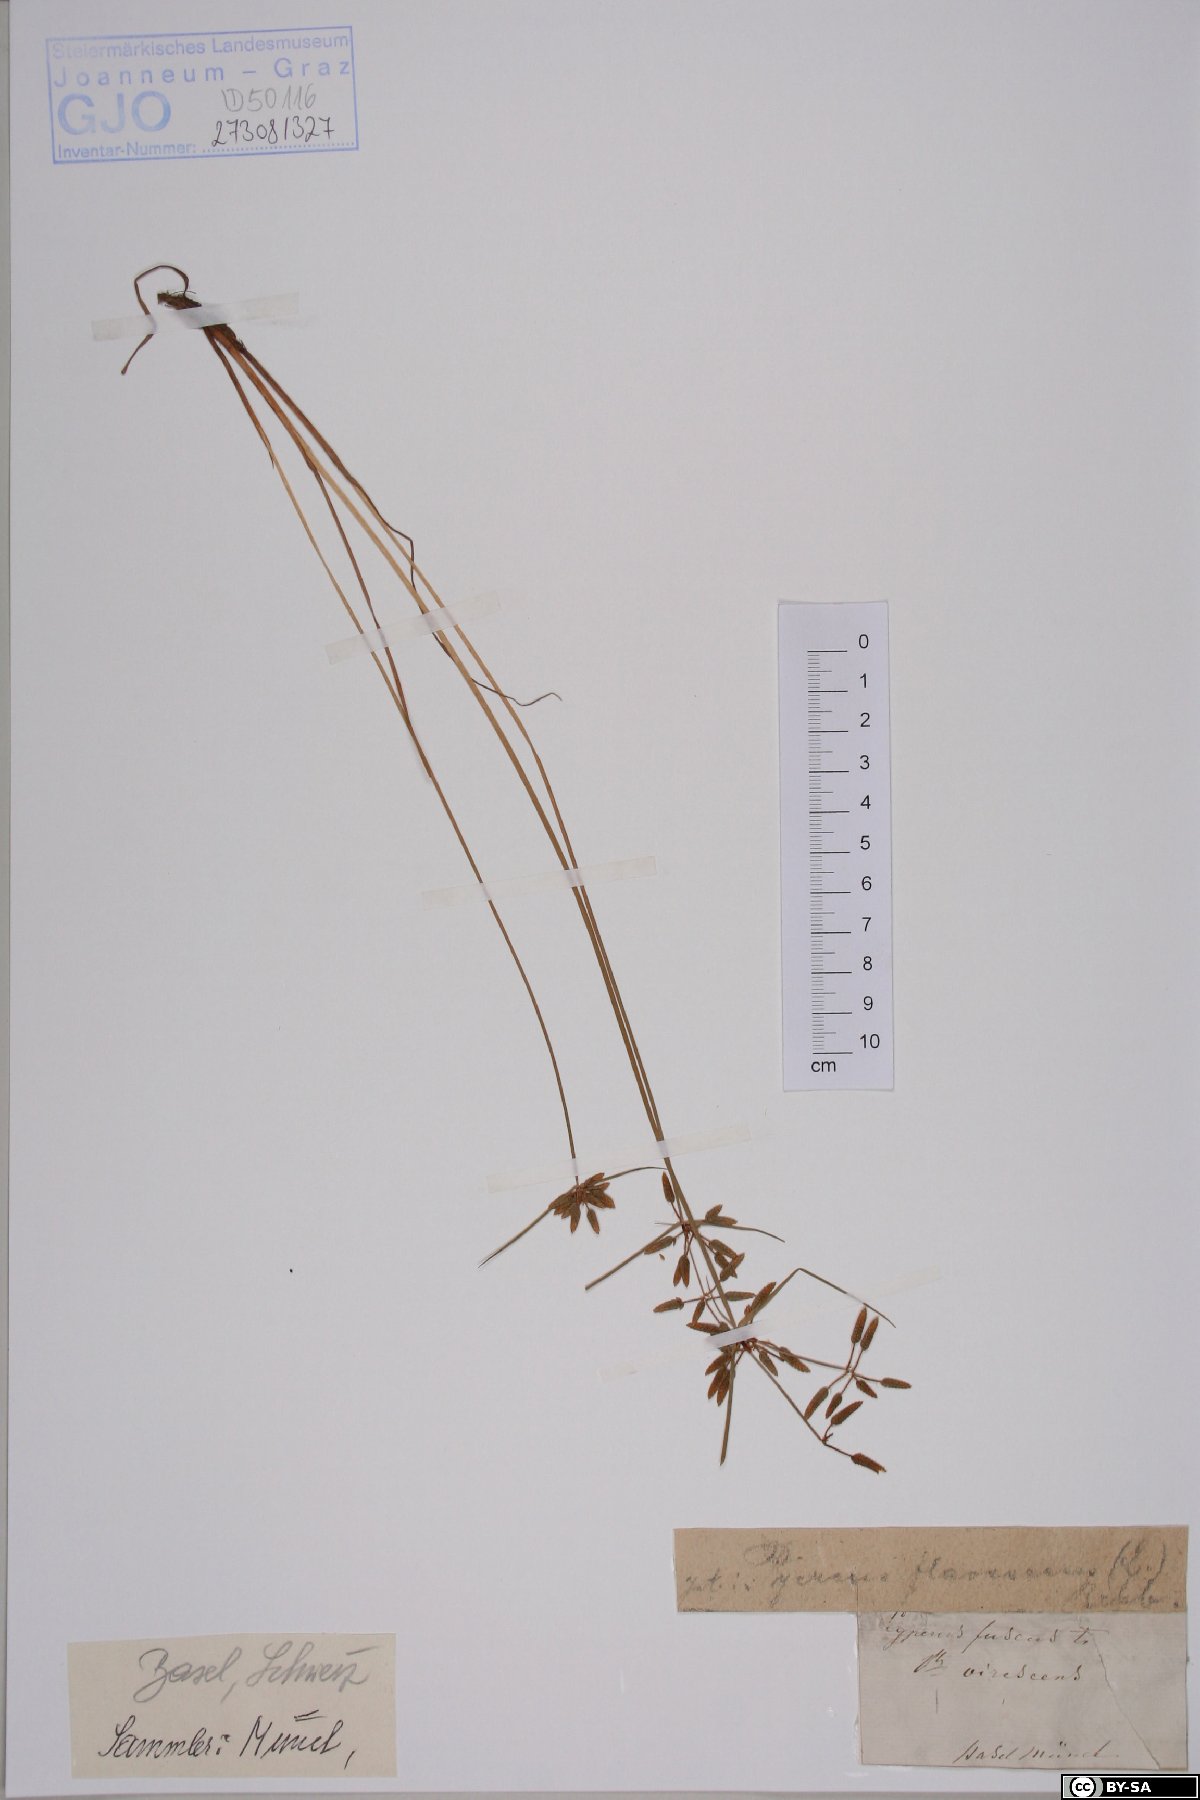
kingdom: Plantae
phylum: Tracheophyta
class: Liliopsida
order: Poales
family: Cyperaceae
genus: Cyperus
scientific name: Cyperus fuscus
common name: Brown galingale
